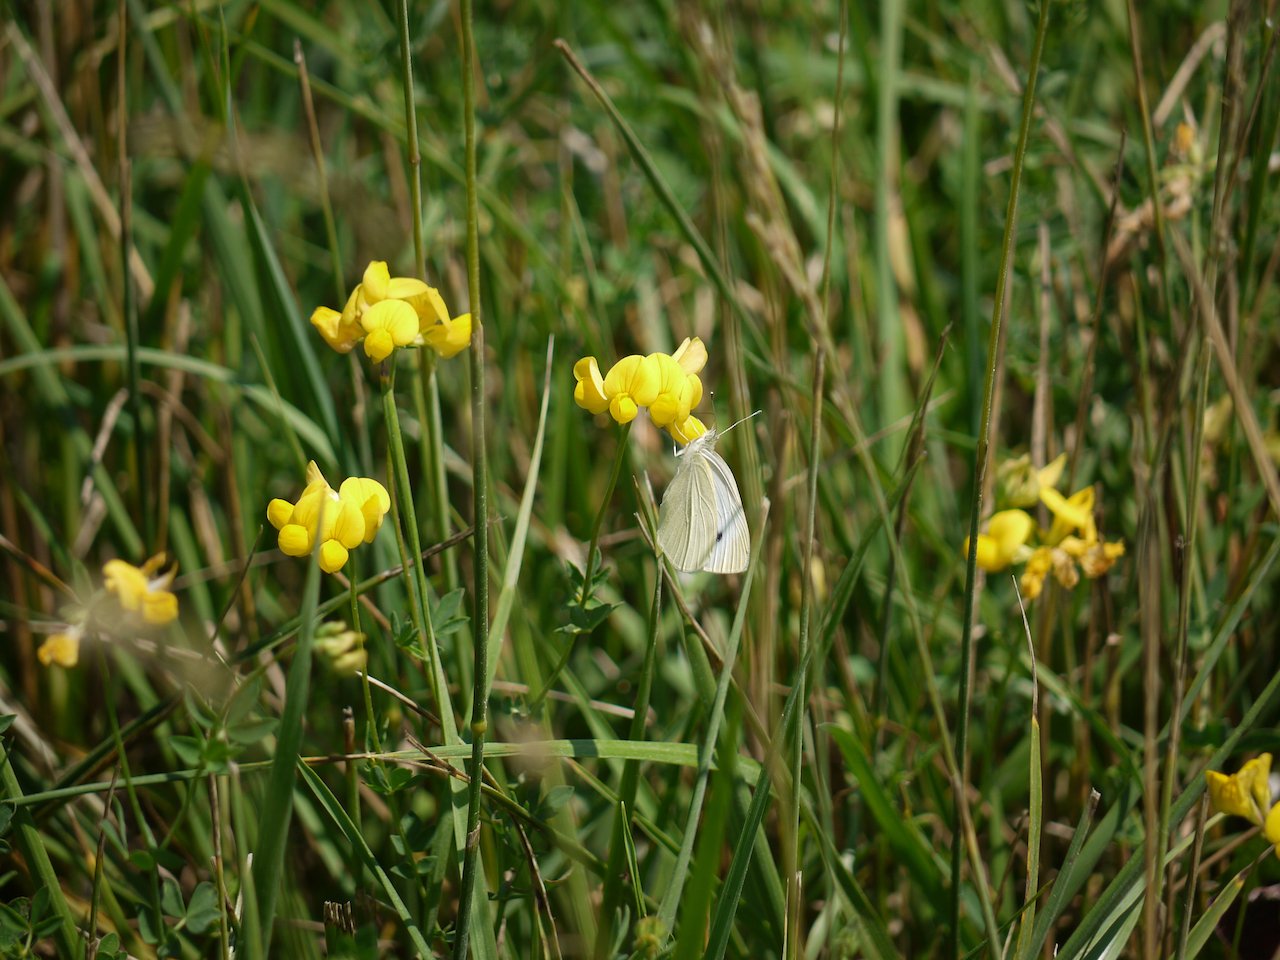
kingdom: Animalia
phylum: Arthropoda
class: Insecta
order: Lepidoptera
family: Pieridae
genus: Pieris
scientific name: Pieris rapae
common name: Cabbage White
